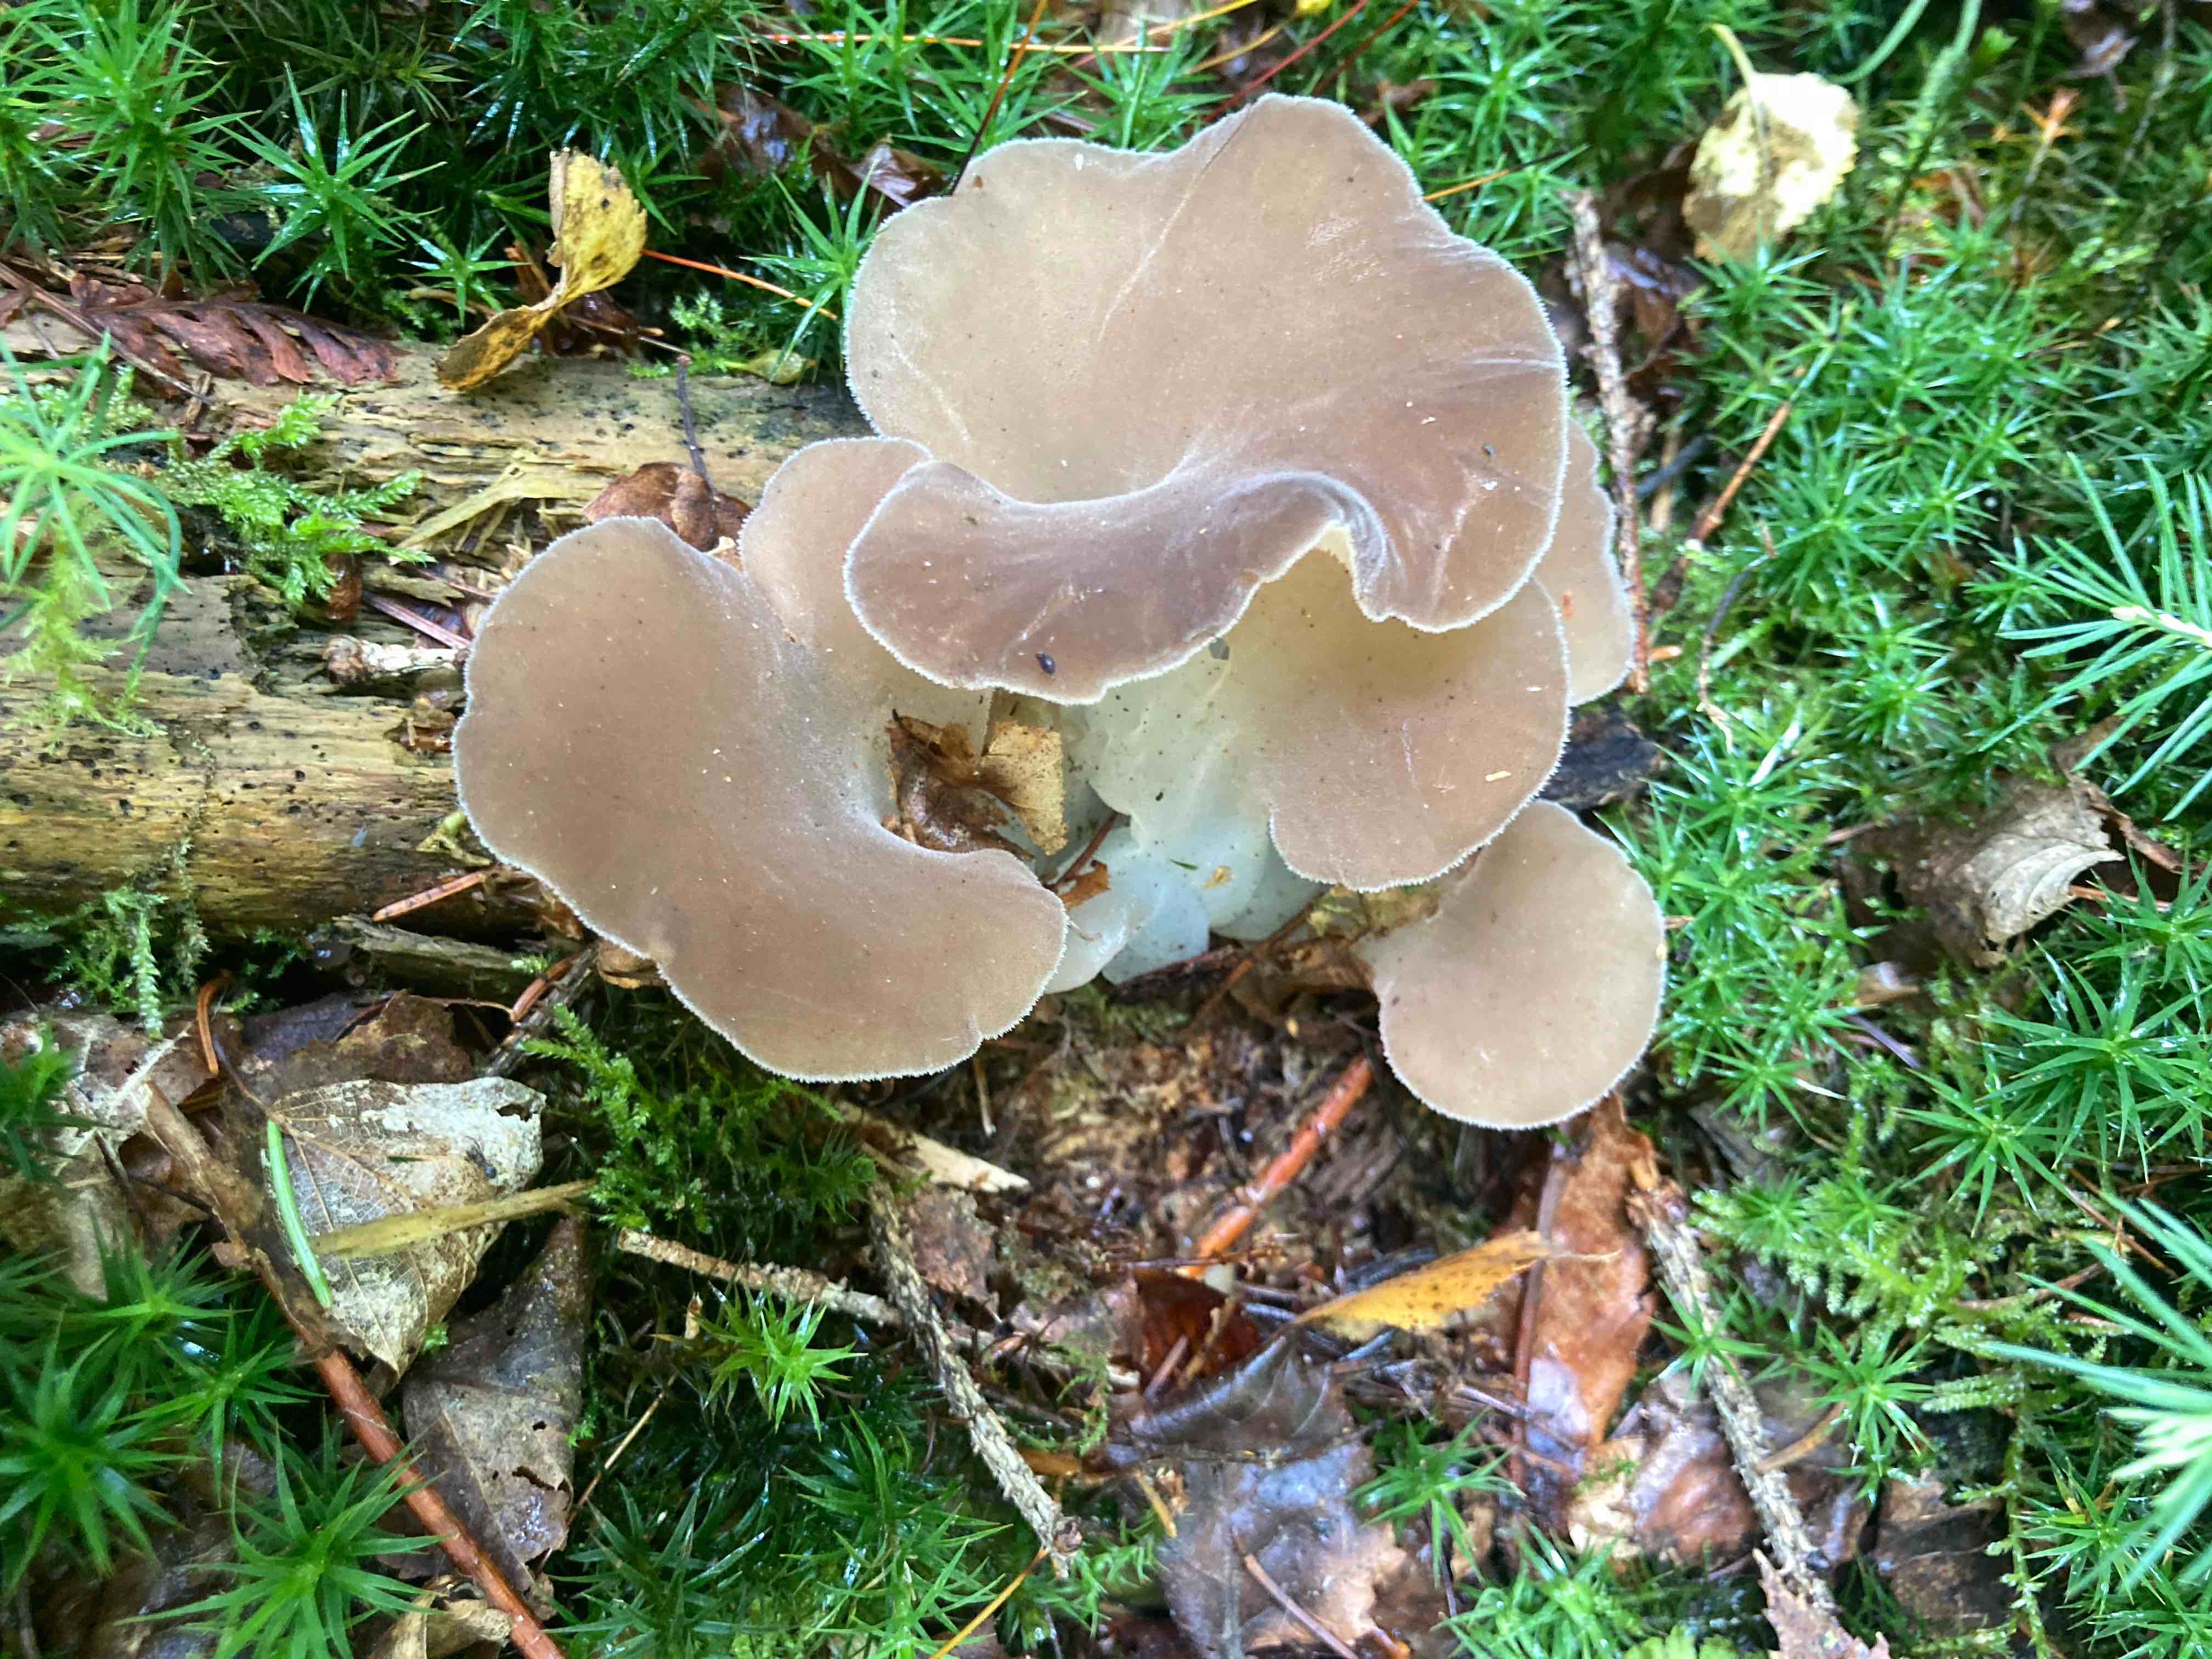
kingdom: Fungi
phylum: Basidiomycota
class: Agaricomycetes
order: Auriculariales
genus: Pseudohydnum
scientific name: Pseudohydnum gelatinosum
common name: bævretand
